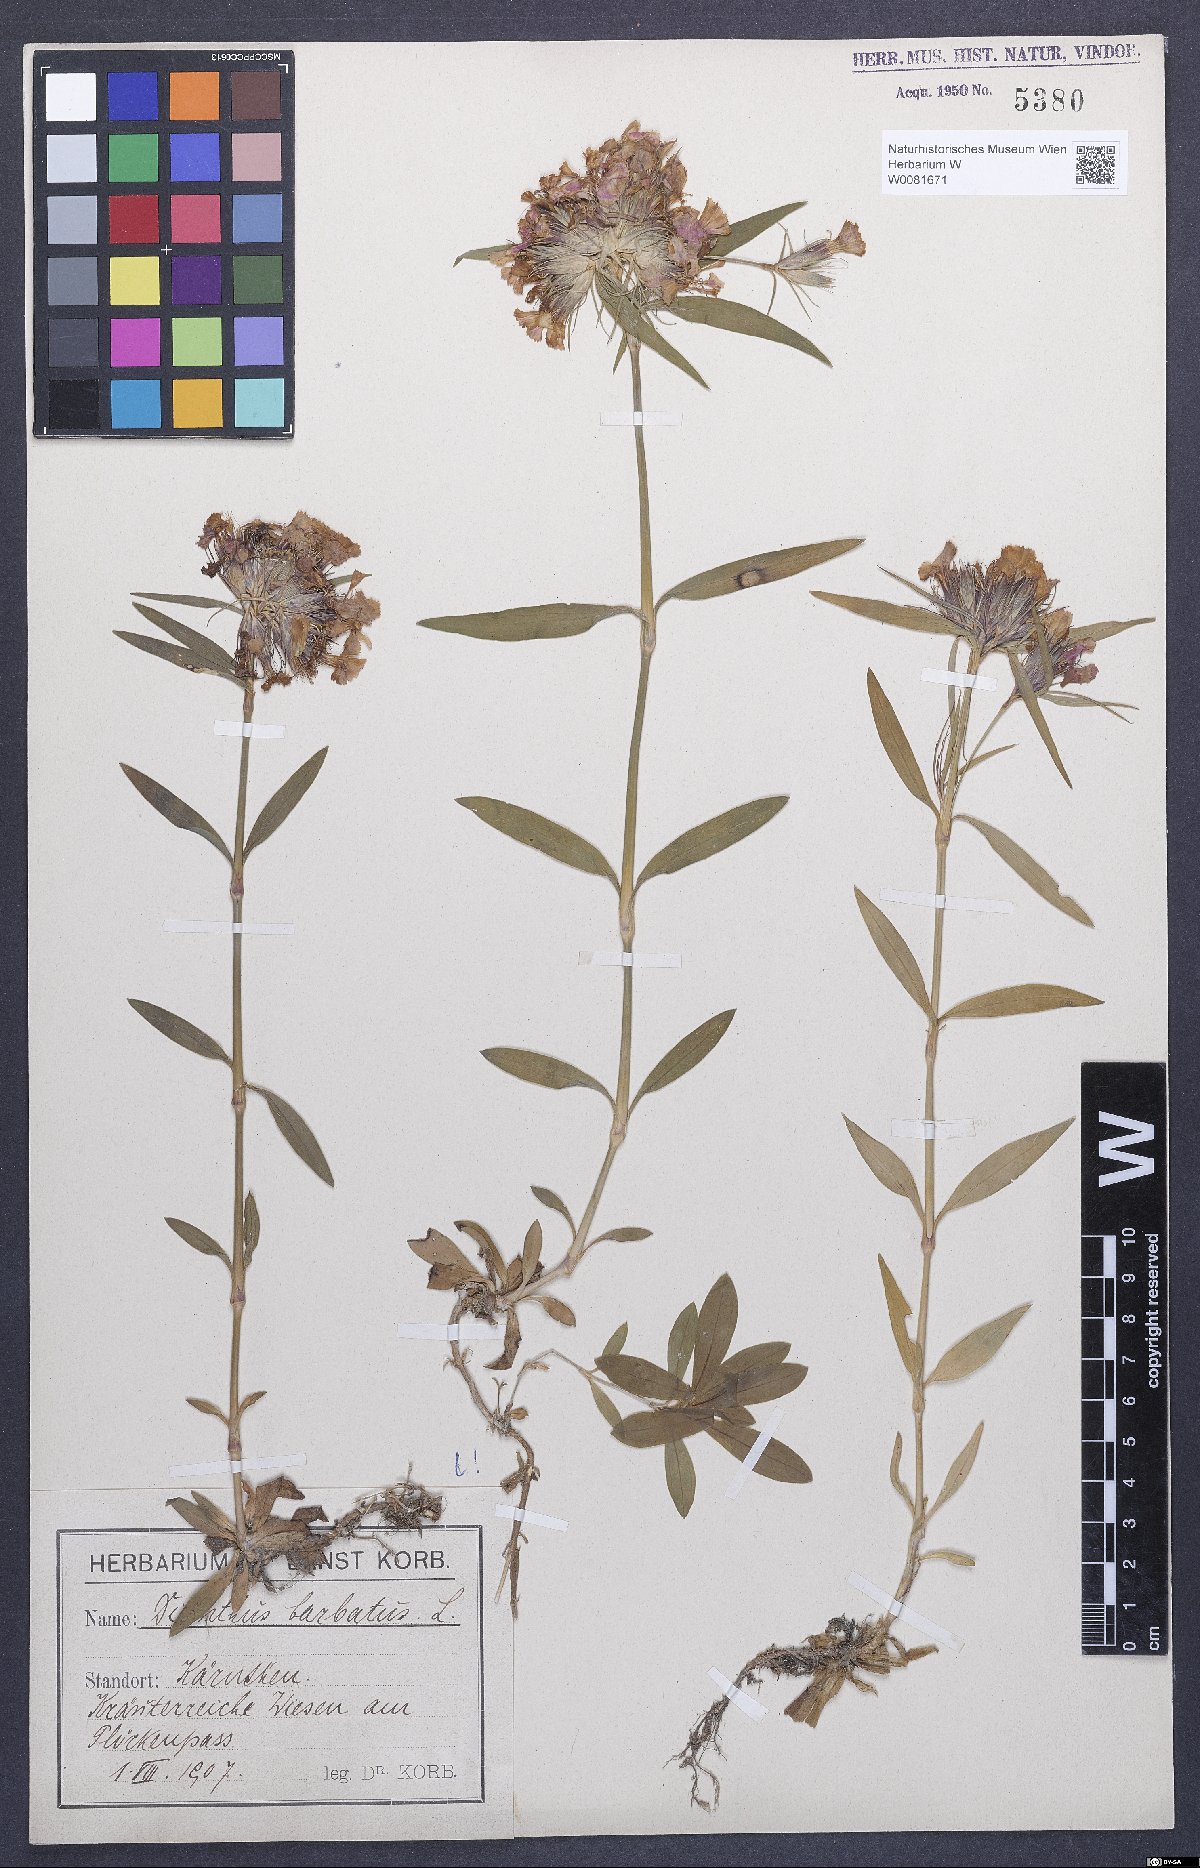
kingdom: Plantae
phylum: Tracheophyta
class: Magnoliopsida
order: Caryophyllales
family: Caryophyllaceae
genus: Dianthus
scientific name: Dianthus barbatus
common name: Sweet-william
